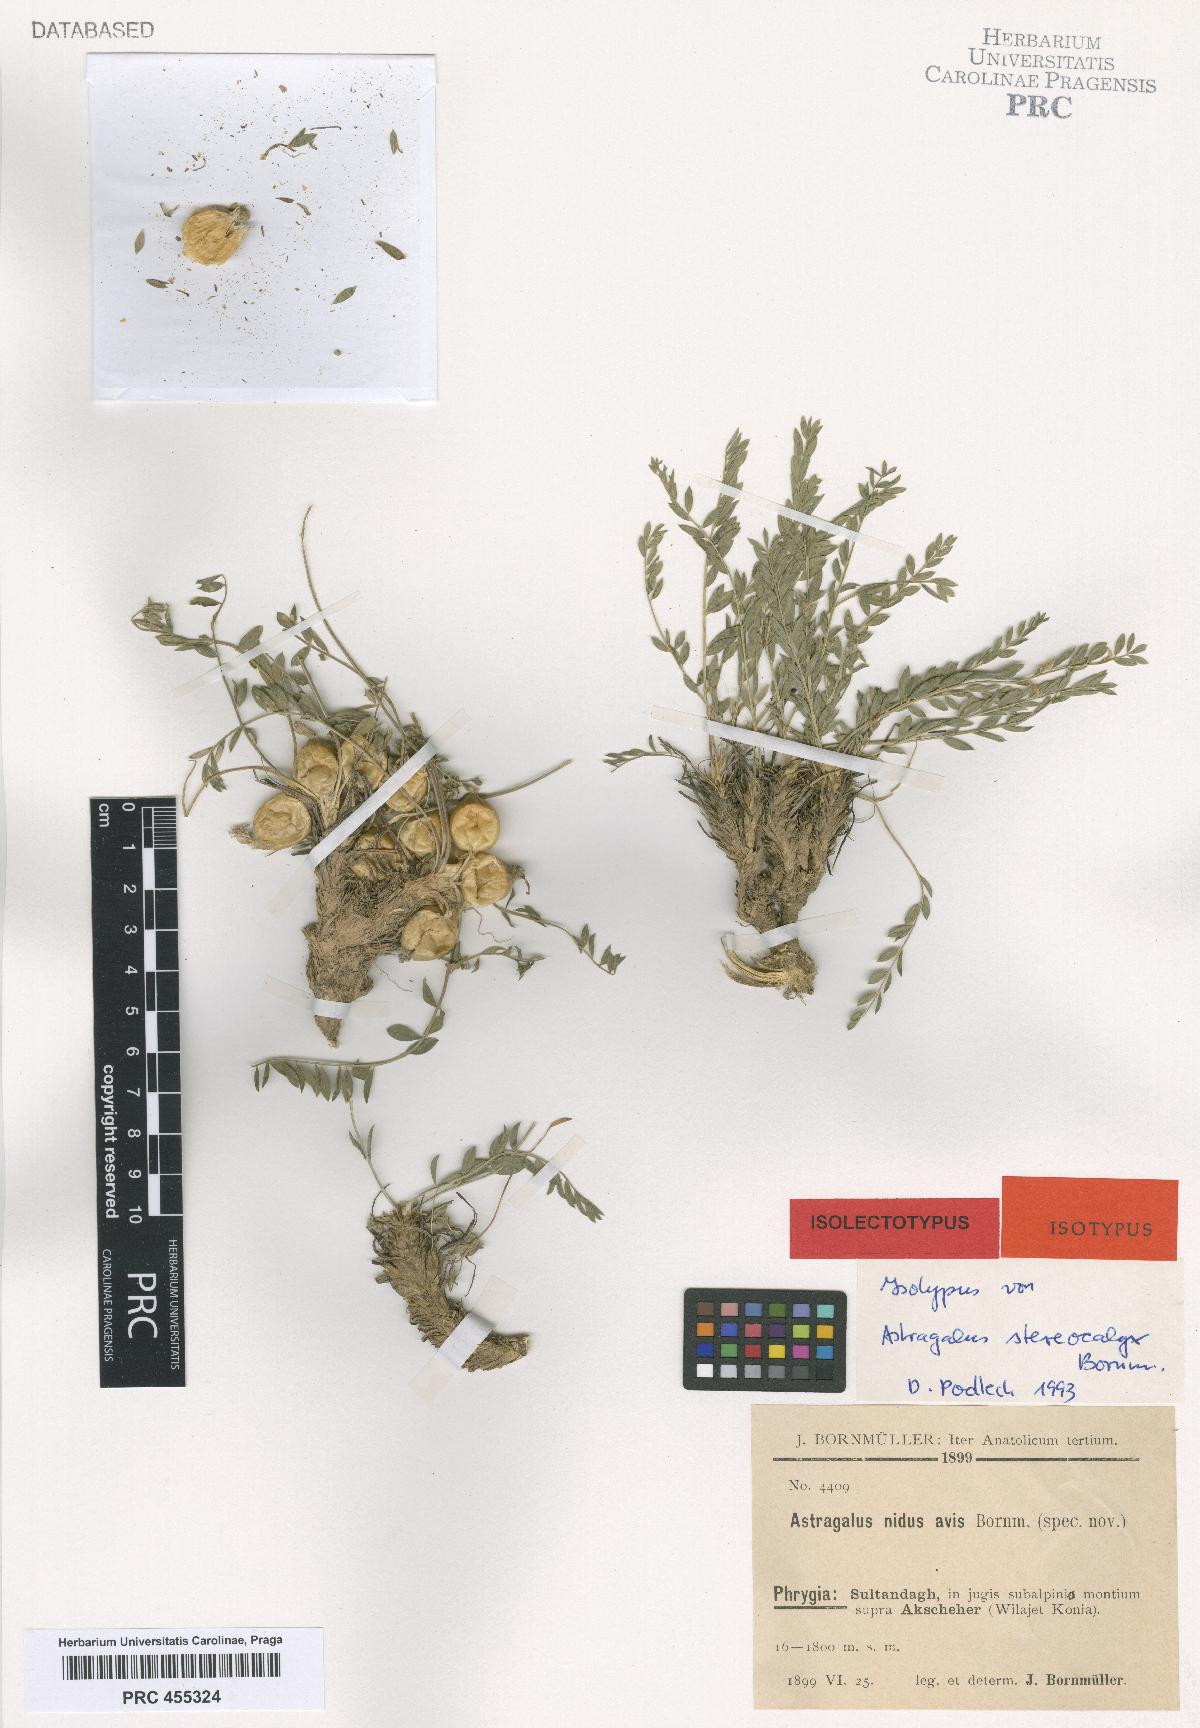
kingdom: Plantae
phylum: Tracheophyta
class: Magnoliopsida
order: Fabales
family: Fabaceae
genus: Astragalus
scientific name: Astragalus physocalyx
